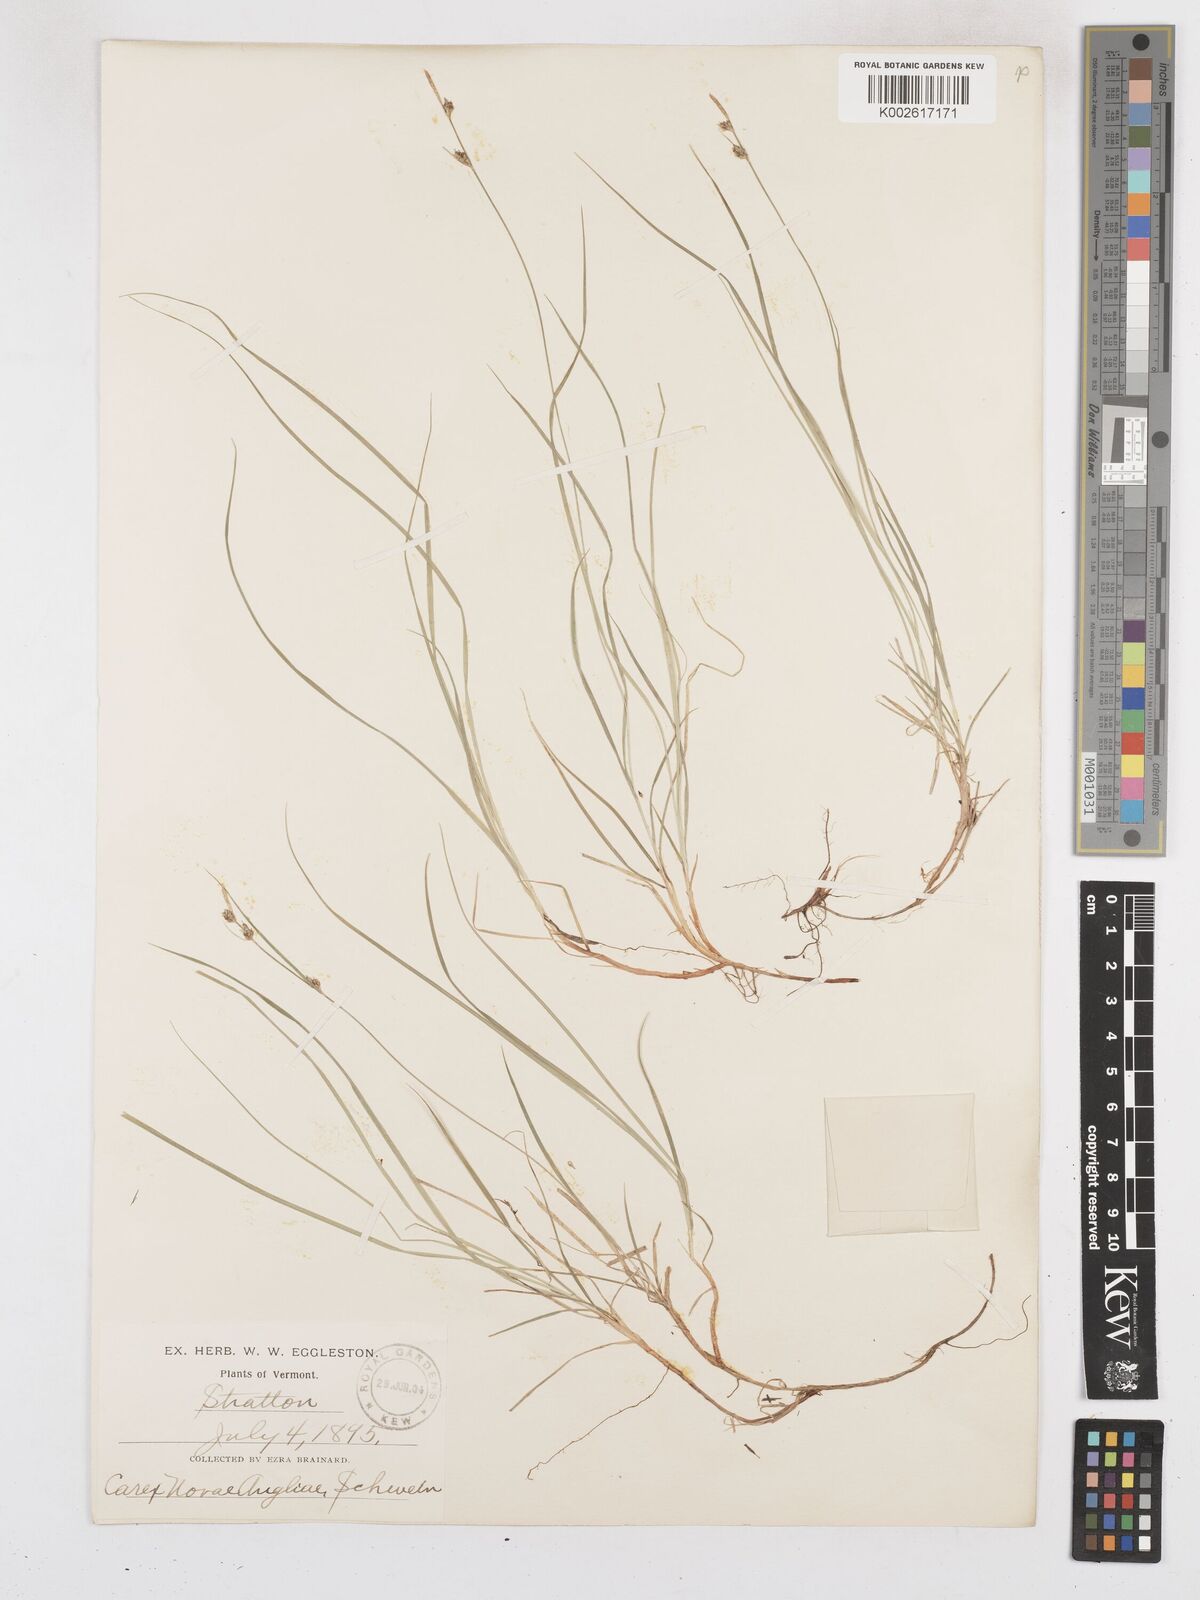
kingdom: Plantae
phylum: Tracheophyta
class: Liliopsida
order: Poales
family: Cyperaceae
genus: Carex
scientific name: Carex novae-angliae
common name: New england sedge
